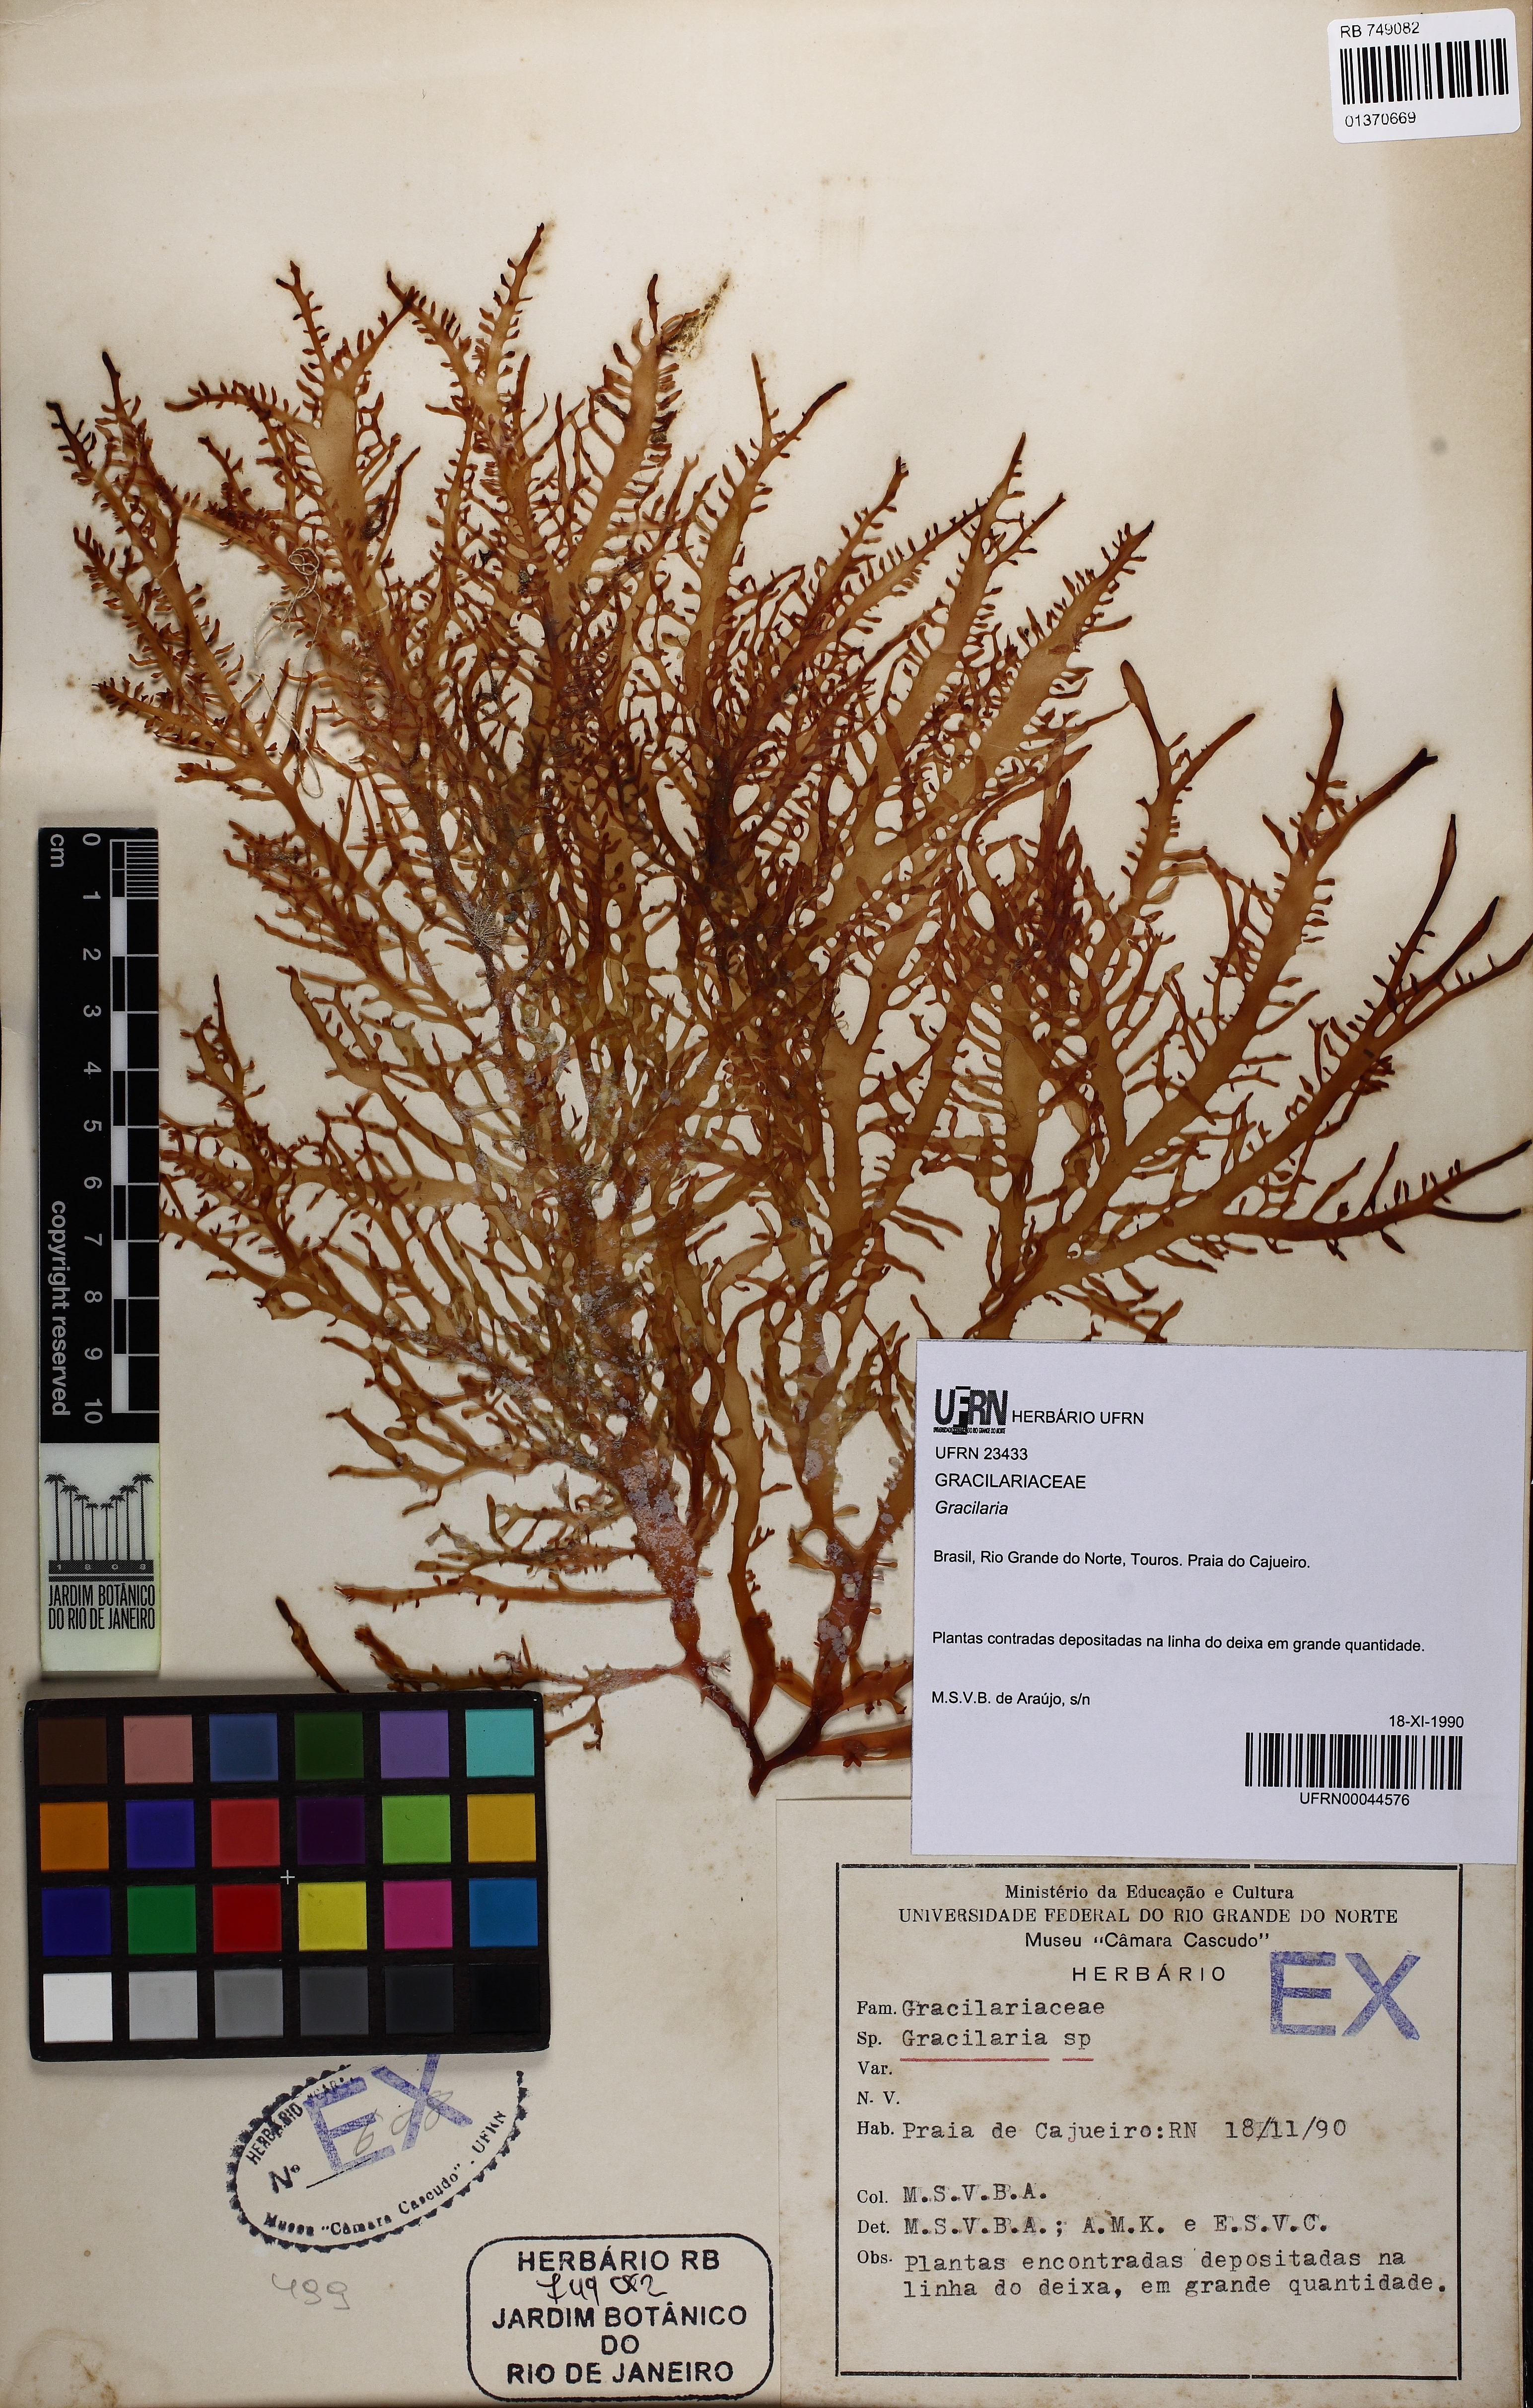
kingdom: Plantae
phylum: Rhodophyta
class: Florideophyceae
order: Gracilariales
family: Gracilariaceae
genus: Gracilaria
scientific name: Gracilaria
